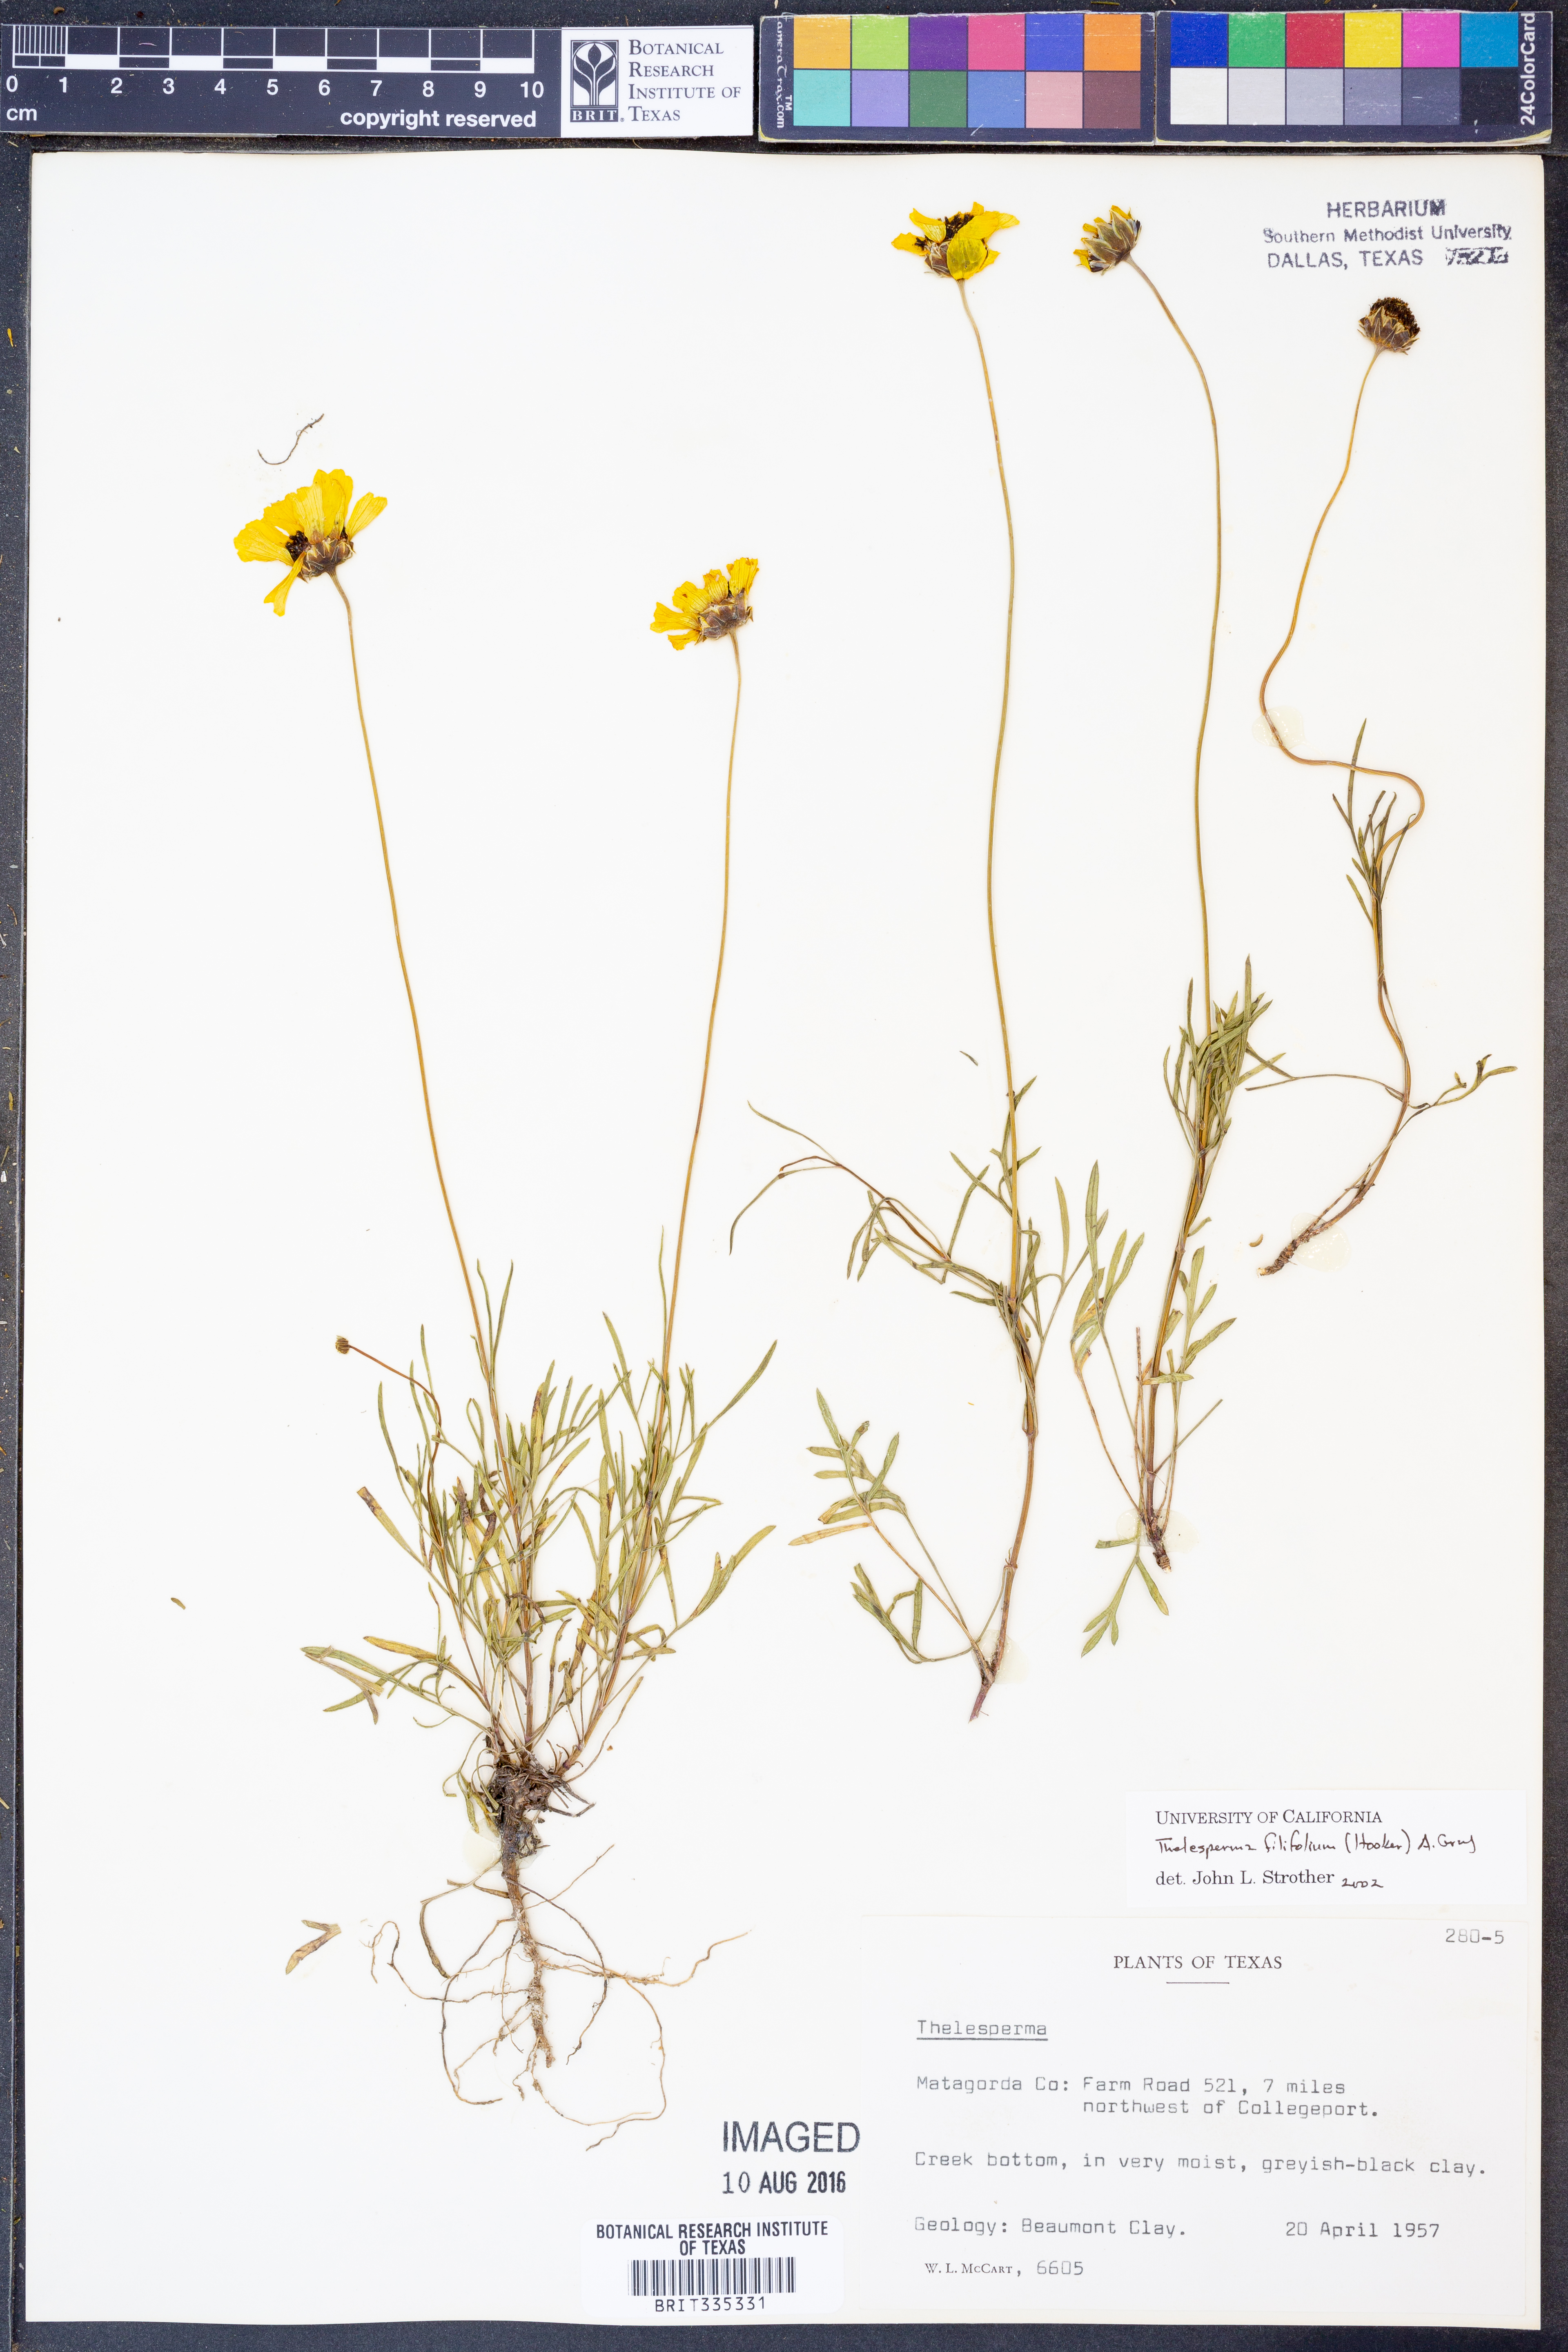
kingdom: Plantae
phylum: Tracheophyta
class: Magnoliopsida
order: Asterales
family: Asteraceae
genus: Thelesperma
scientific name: Thelesperma filifolium
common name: Stiff greenthread
